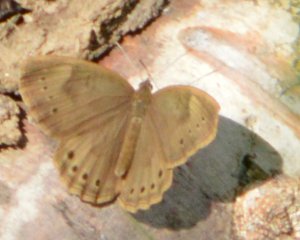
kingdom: Animalia
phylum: Arthropoda
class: Insecta
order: Lepidoptera
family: Nymphalidae
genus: Lethe
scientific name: Lethe eurydice
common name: Eyed Brown
